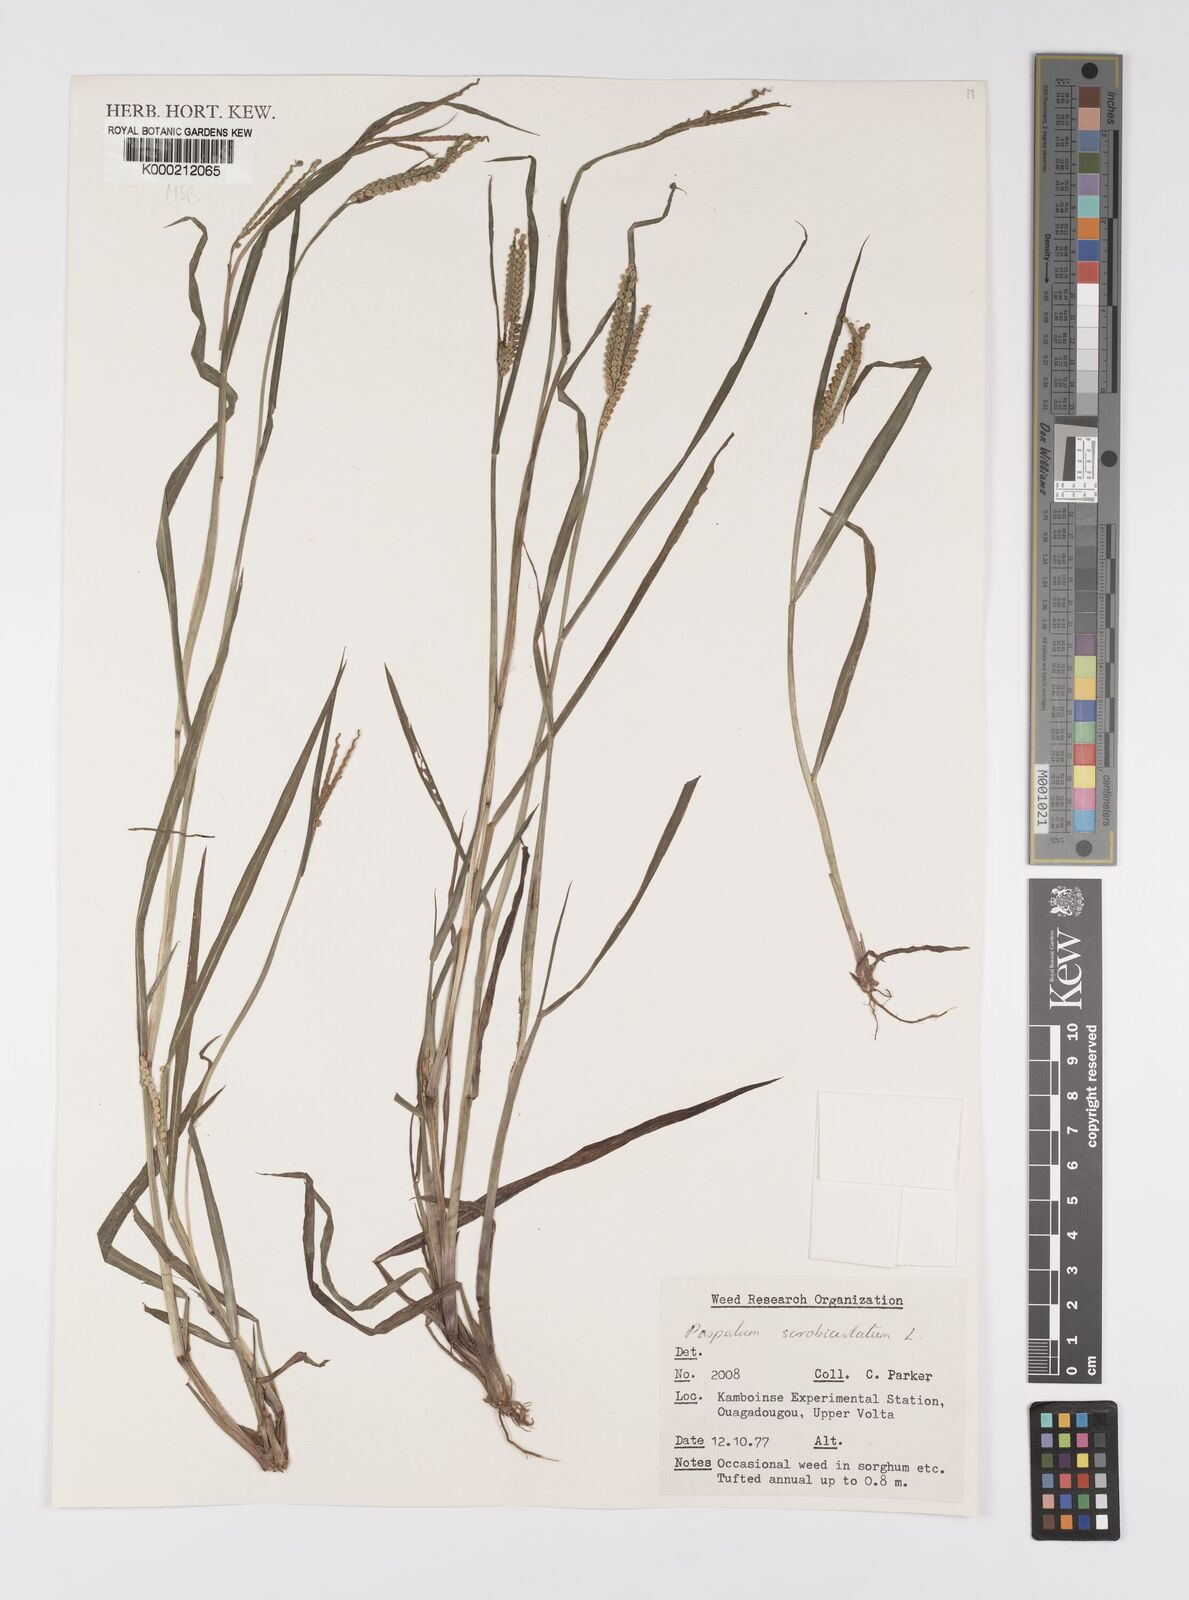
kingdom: Plantae
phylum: Tracheophyta
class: Liliopsida
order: Poales
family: Poaceae
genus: Paspalum
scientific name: Paspalum scrobiculatum
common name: Kodo millet
